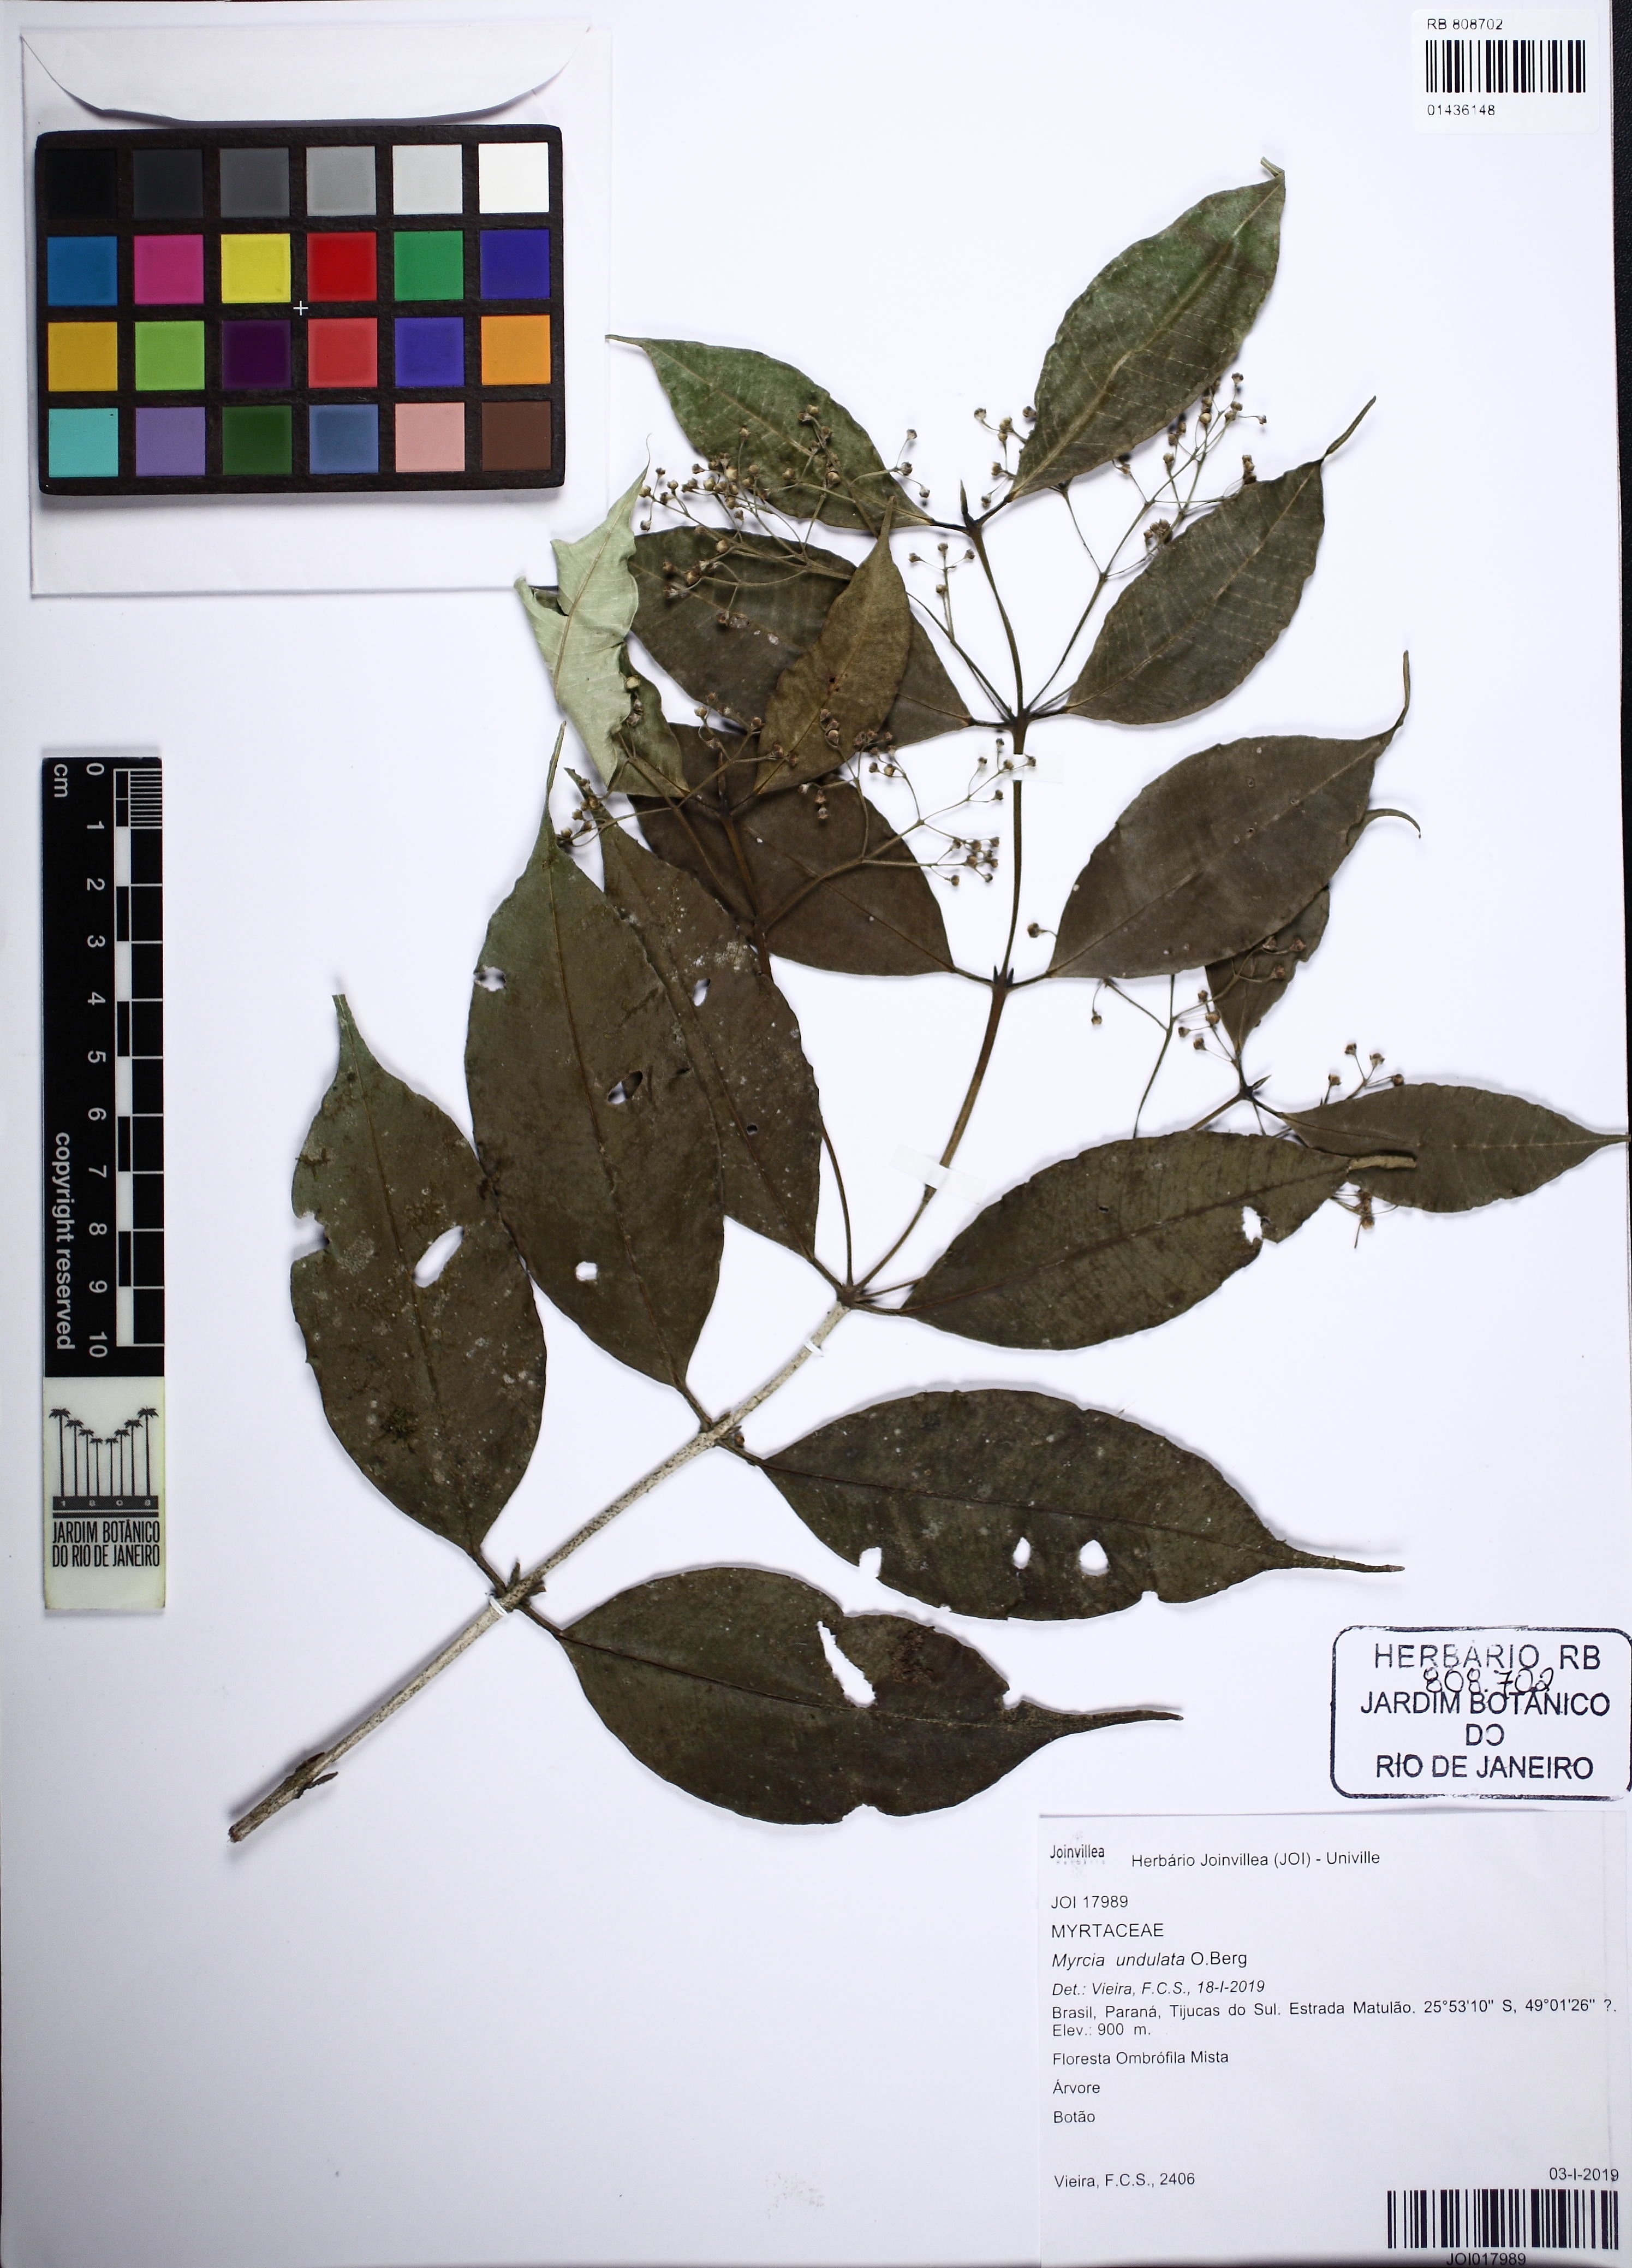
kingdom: Plantae
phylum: Tracheophyta
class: Magnoliopsida
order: Myrtales
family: Myrtaceae
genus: Myrcia
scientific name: Myrcia undulata
